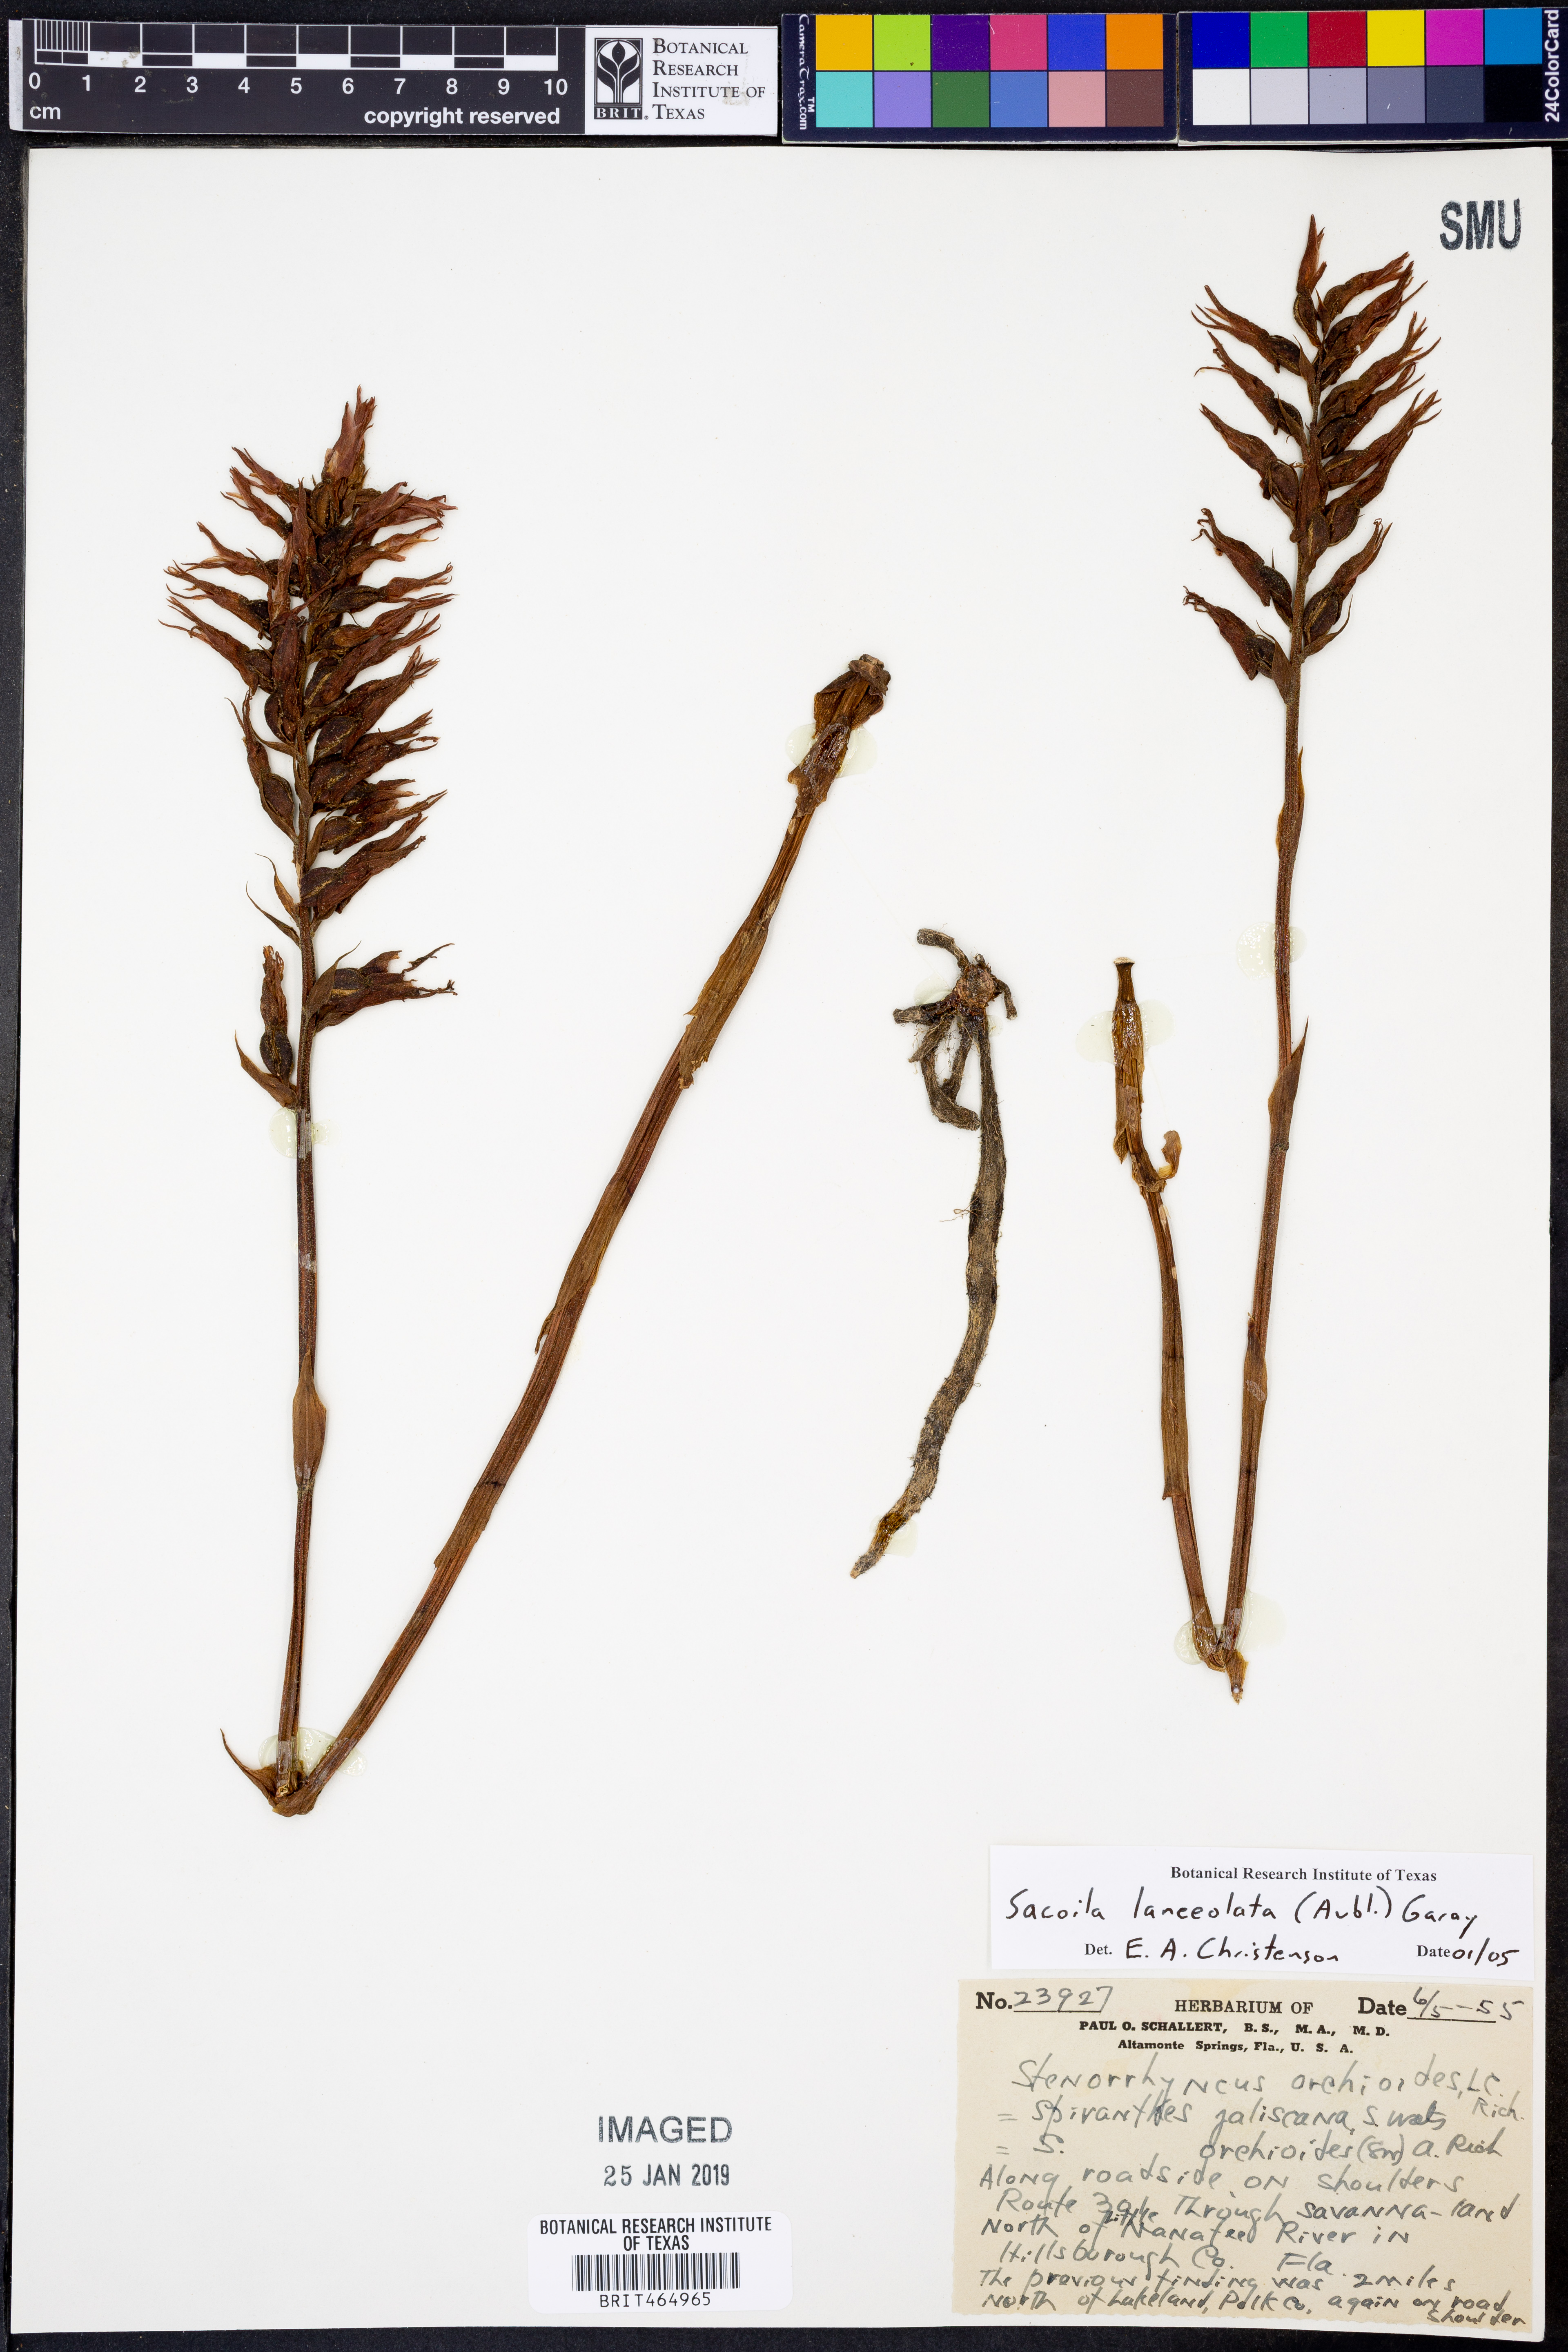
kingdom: Plantae
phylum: Tracheophyta
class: Liliopsida
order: Asparagales
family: Orchidaceae
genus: Sacoila
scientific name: Sacoila lanceolata
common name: Leafless beaked ladiestresses
